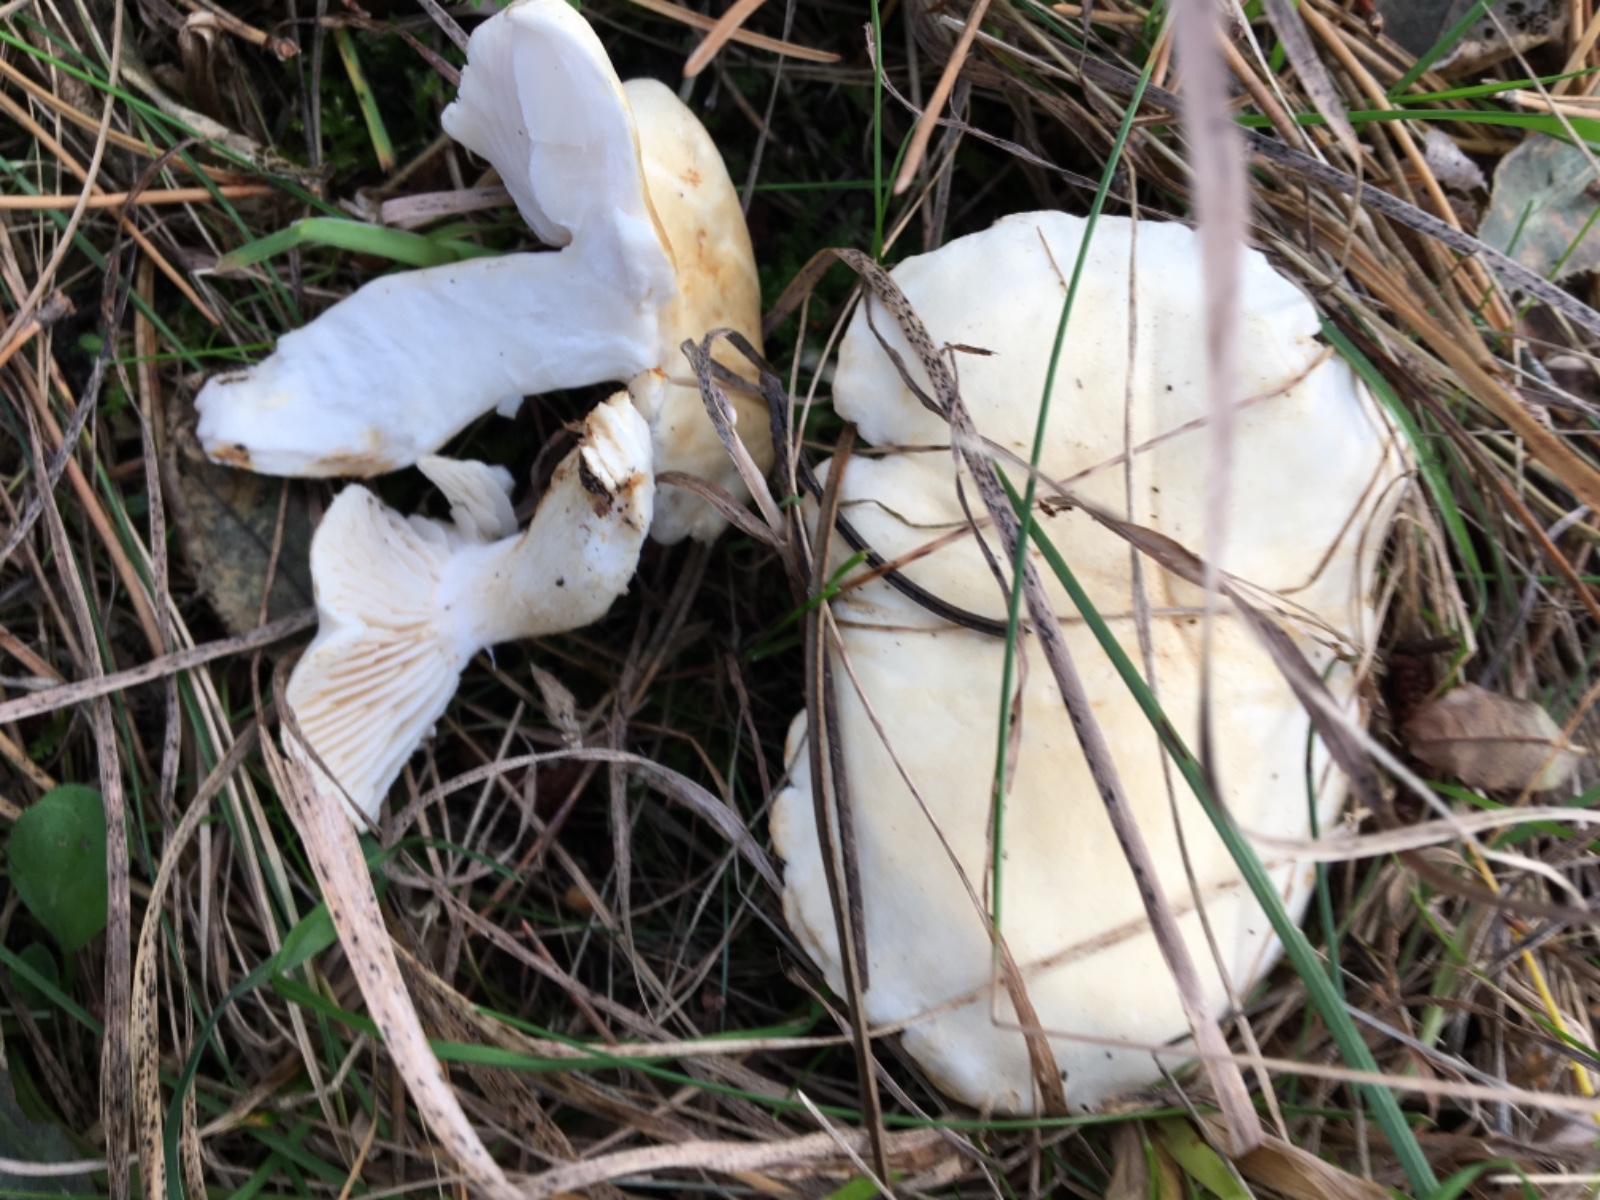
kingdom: Fungi
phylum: Basidiomycota
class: Agaricomycetes
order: Agaricales
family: Tricholomataceae
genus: Tricholoma
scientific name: Tricholoma
